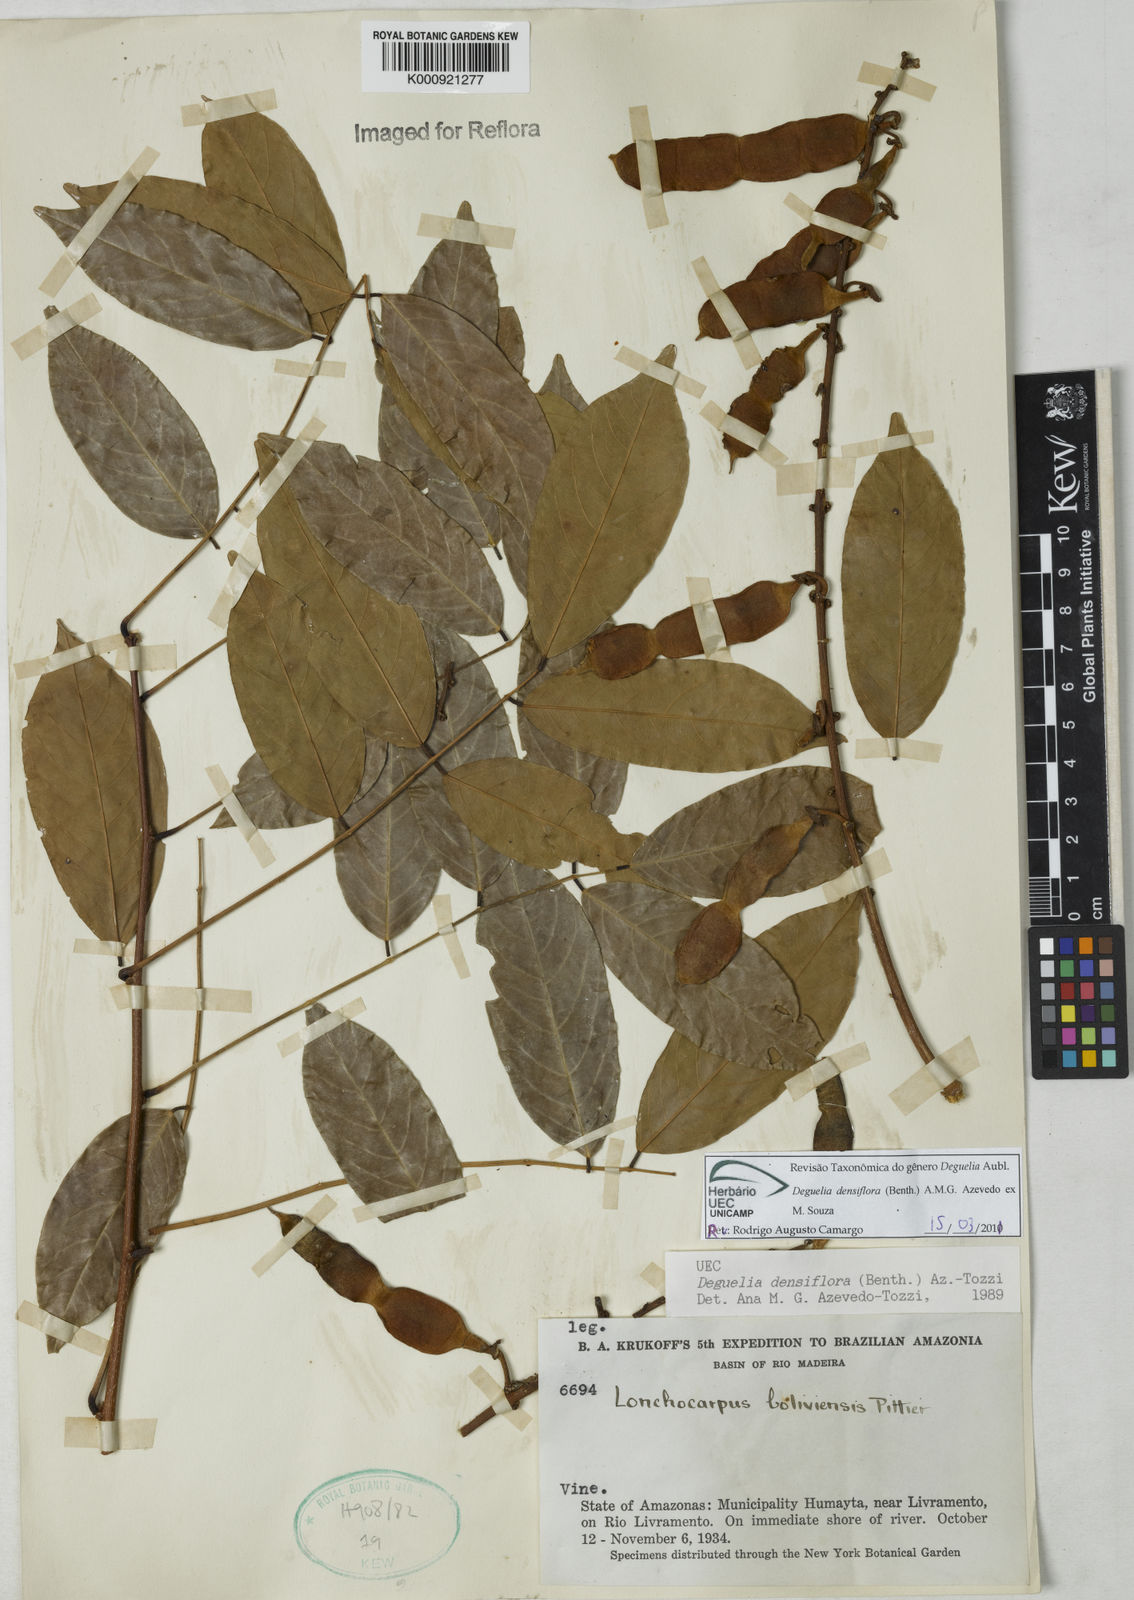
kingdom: Plantae
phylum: Tracheophyta
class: Magnoliopsida
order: Fabales
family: Fabaceae
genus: Deguelia
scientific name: Deguelia
